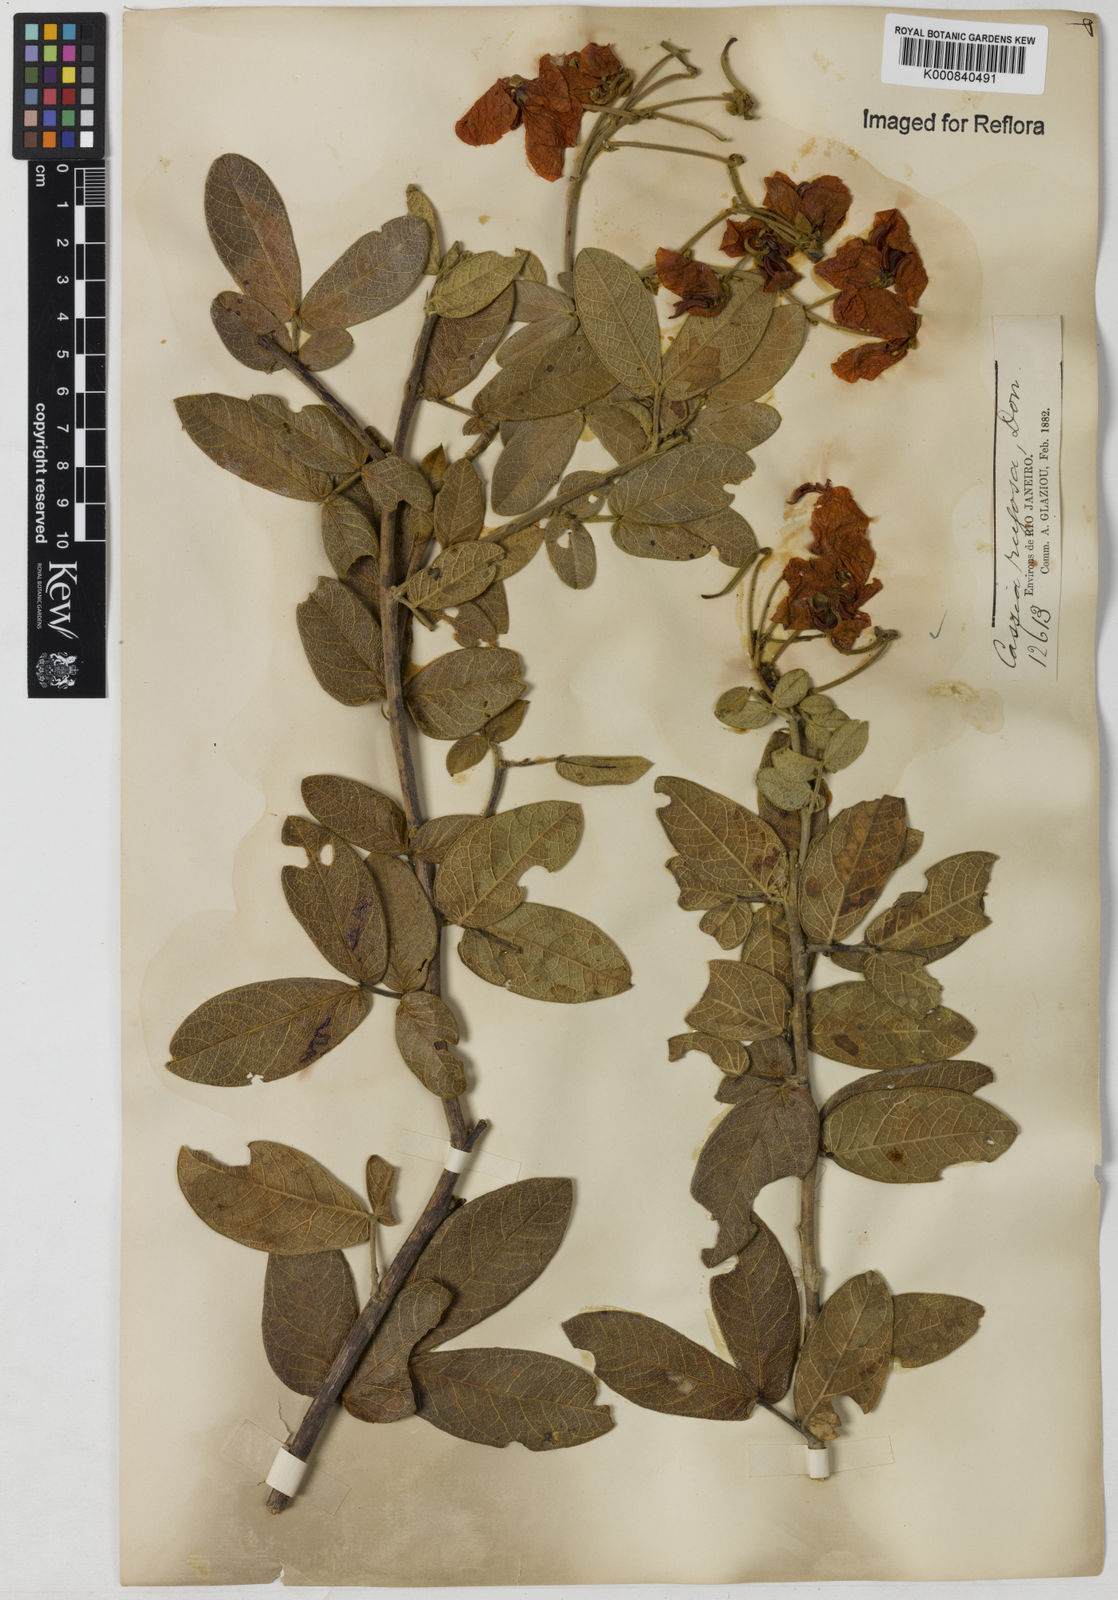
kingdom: Plantae
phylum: Tracheophyta
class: Magnoliopsida
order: Fabales
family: Fabaceae
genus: Senna
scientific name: Senna rugosa
